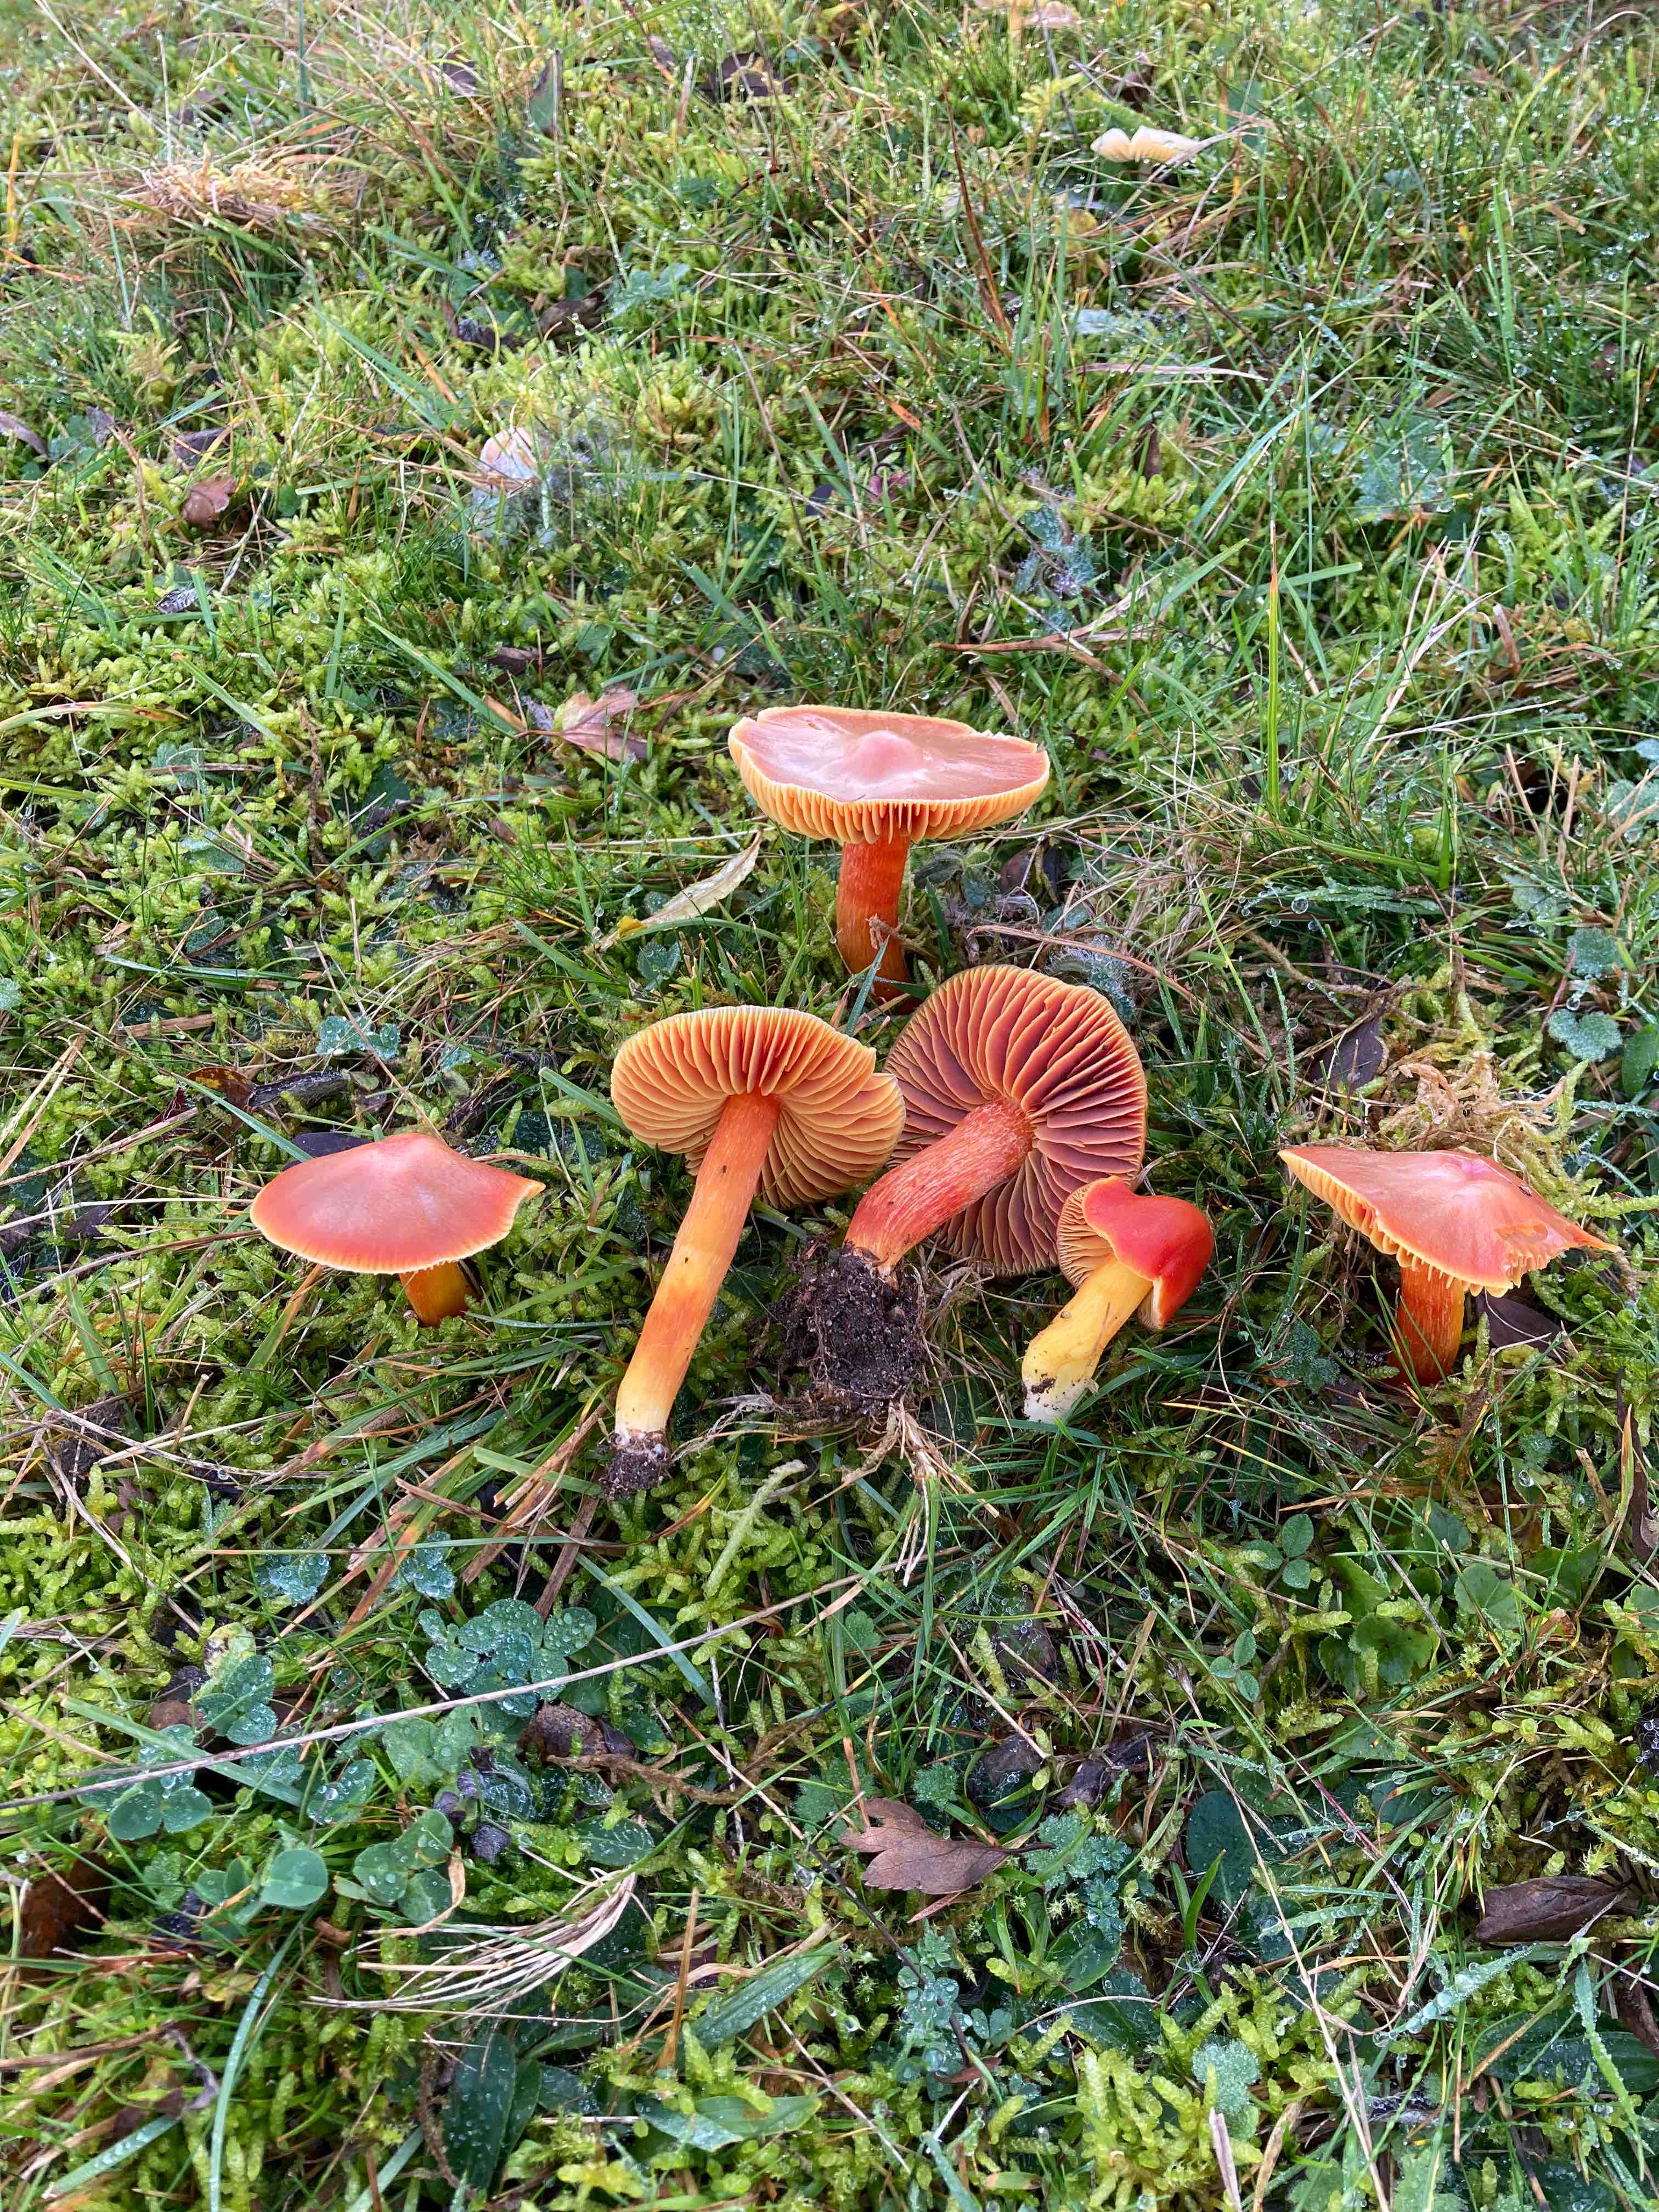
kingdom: Fungi
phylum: Basidiomycota
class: Agaricomycetes
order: Agaricales
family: Hygrophoraceae
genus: Hygrocybe
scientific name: Hygrocybe punicea
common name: skarlagen-vokshat
